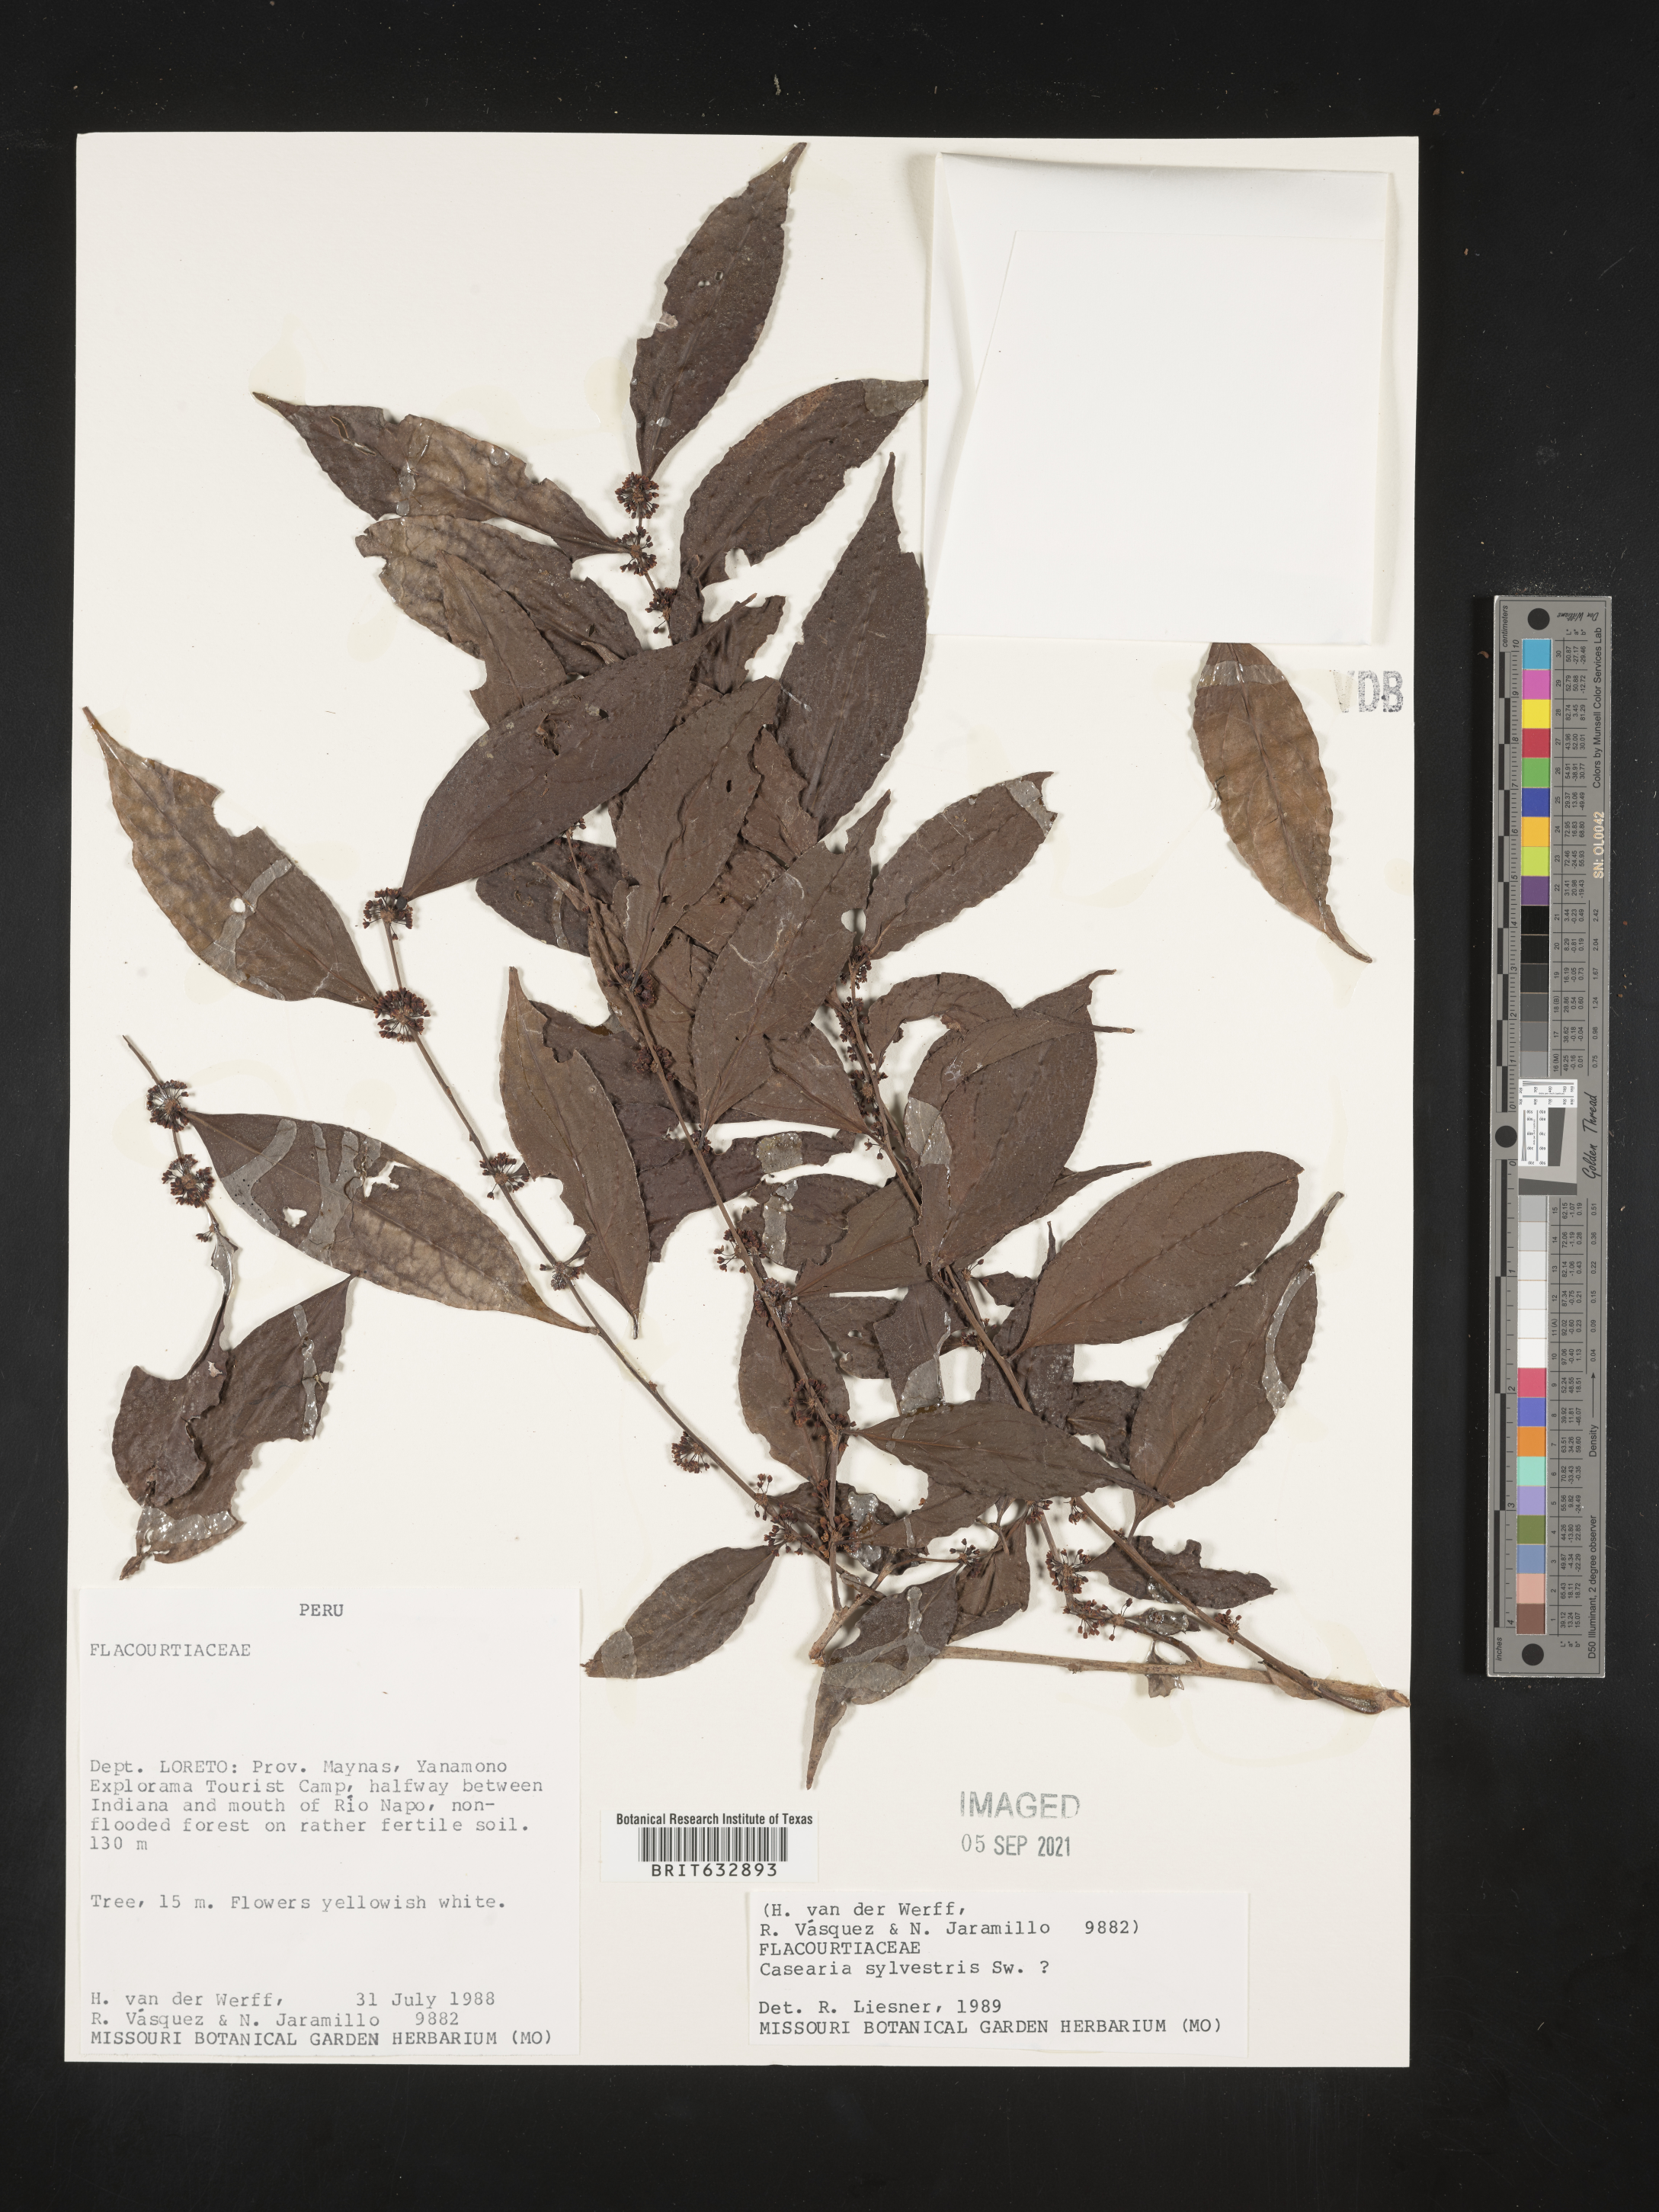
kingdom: Plantae
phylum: Tracheophyta
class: Magnoliopsida
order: Malpighiales
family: Salicaceae
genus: Casearia
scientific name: Casearia
